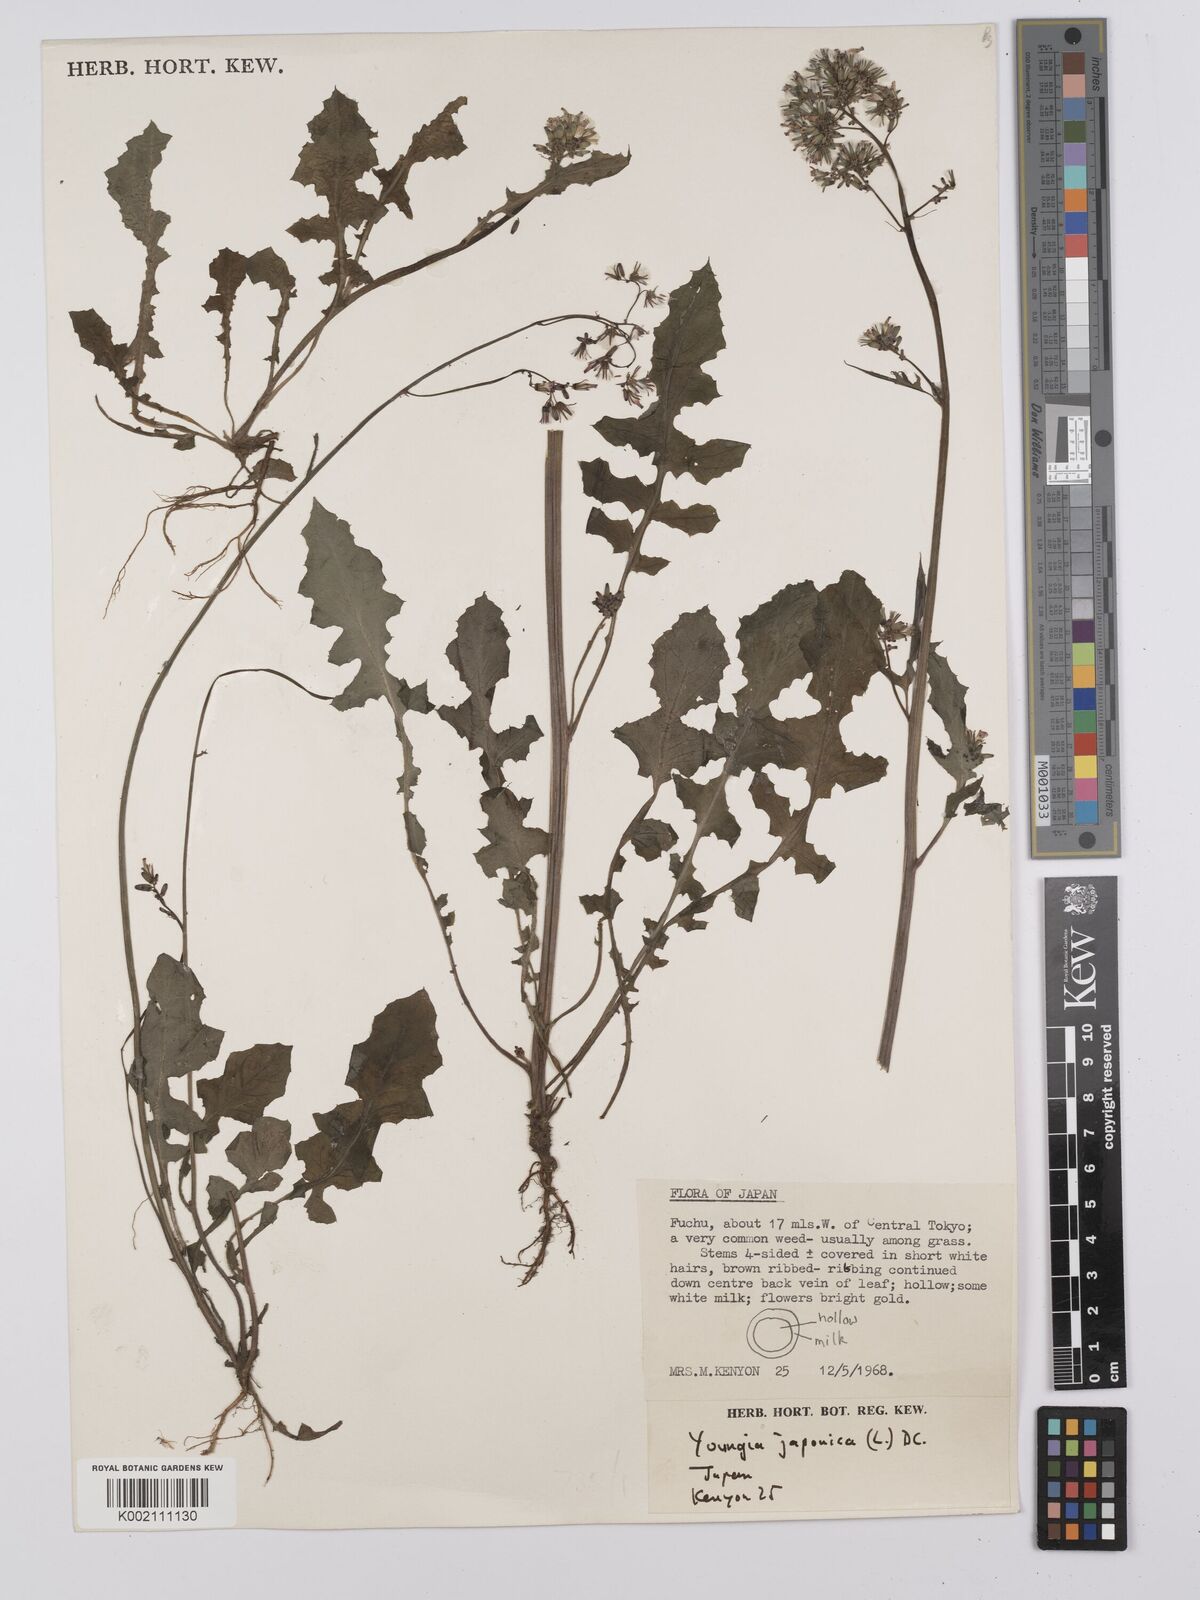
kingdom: Plantae
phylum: Tracheophyta
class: Magnoliopsida
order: Asterales
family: Asteraceae
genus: Youngia
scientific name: Youngia japonica
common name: Oriental false hawksbeard
